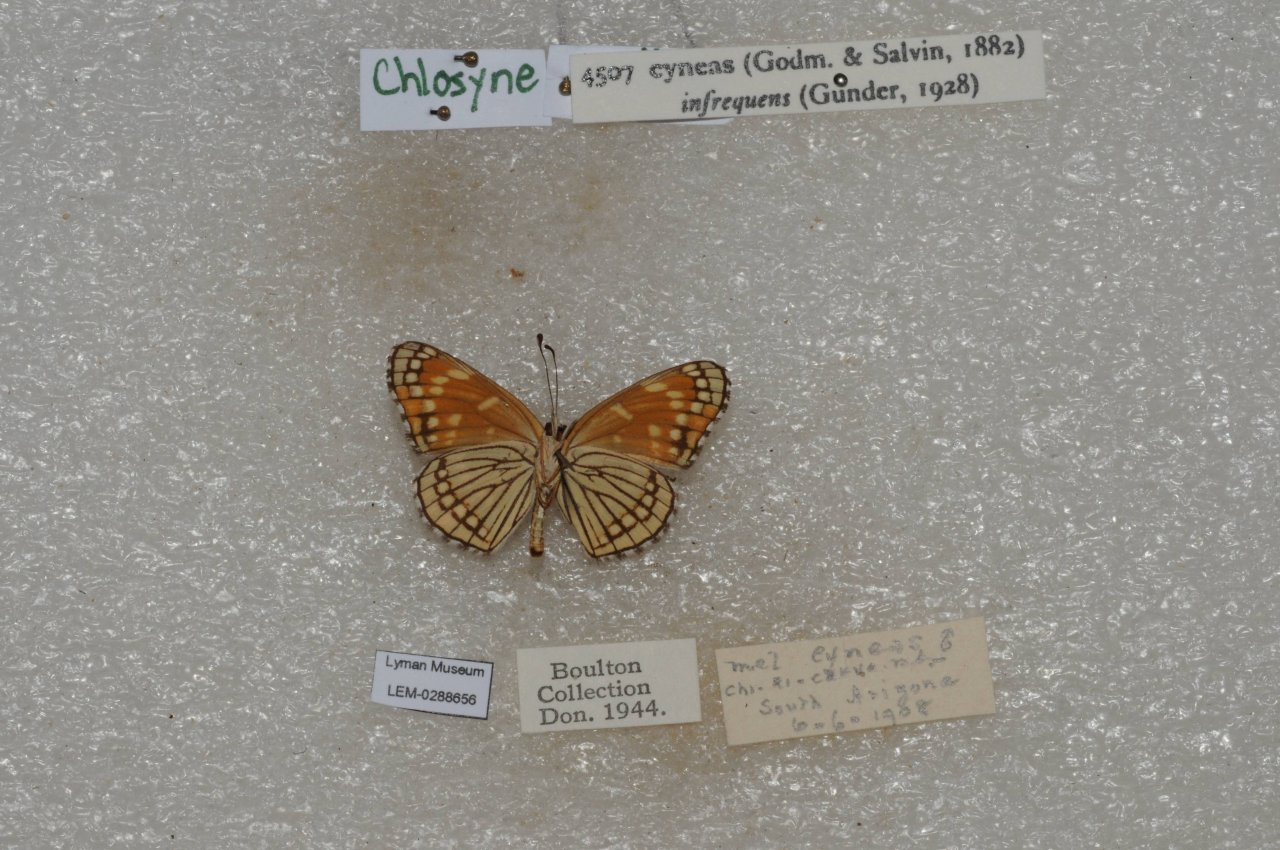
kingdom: Animalia
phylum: Arthropoda
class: Insecta
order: Lepidoptera
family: Nymphalidae
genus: Thessalia
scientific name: Thessalia leanira
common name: Black Checkerspot
